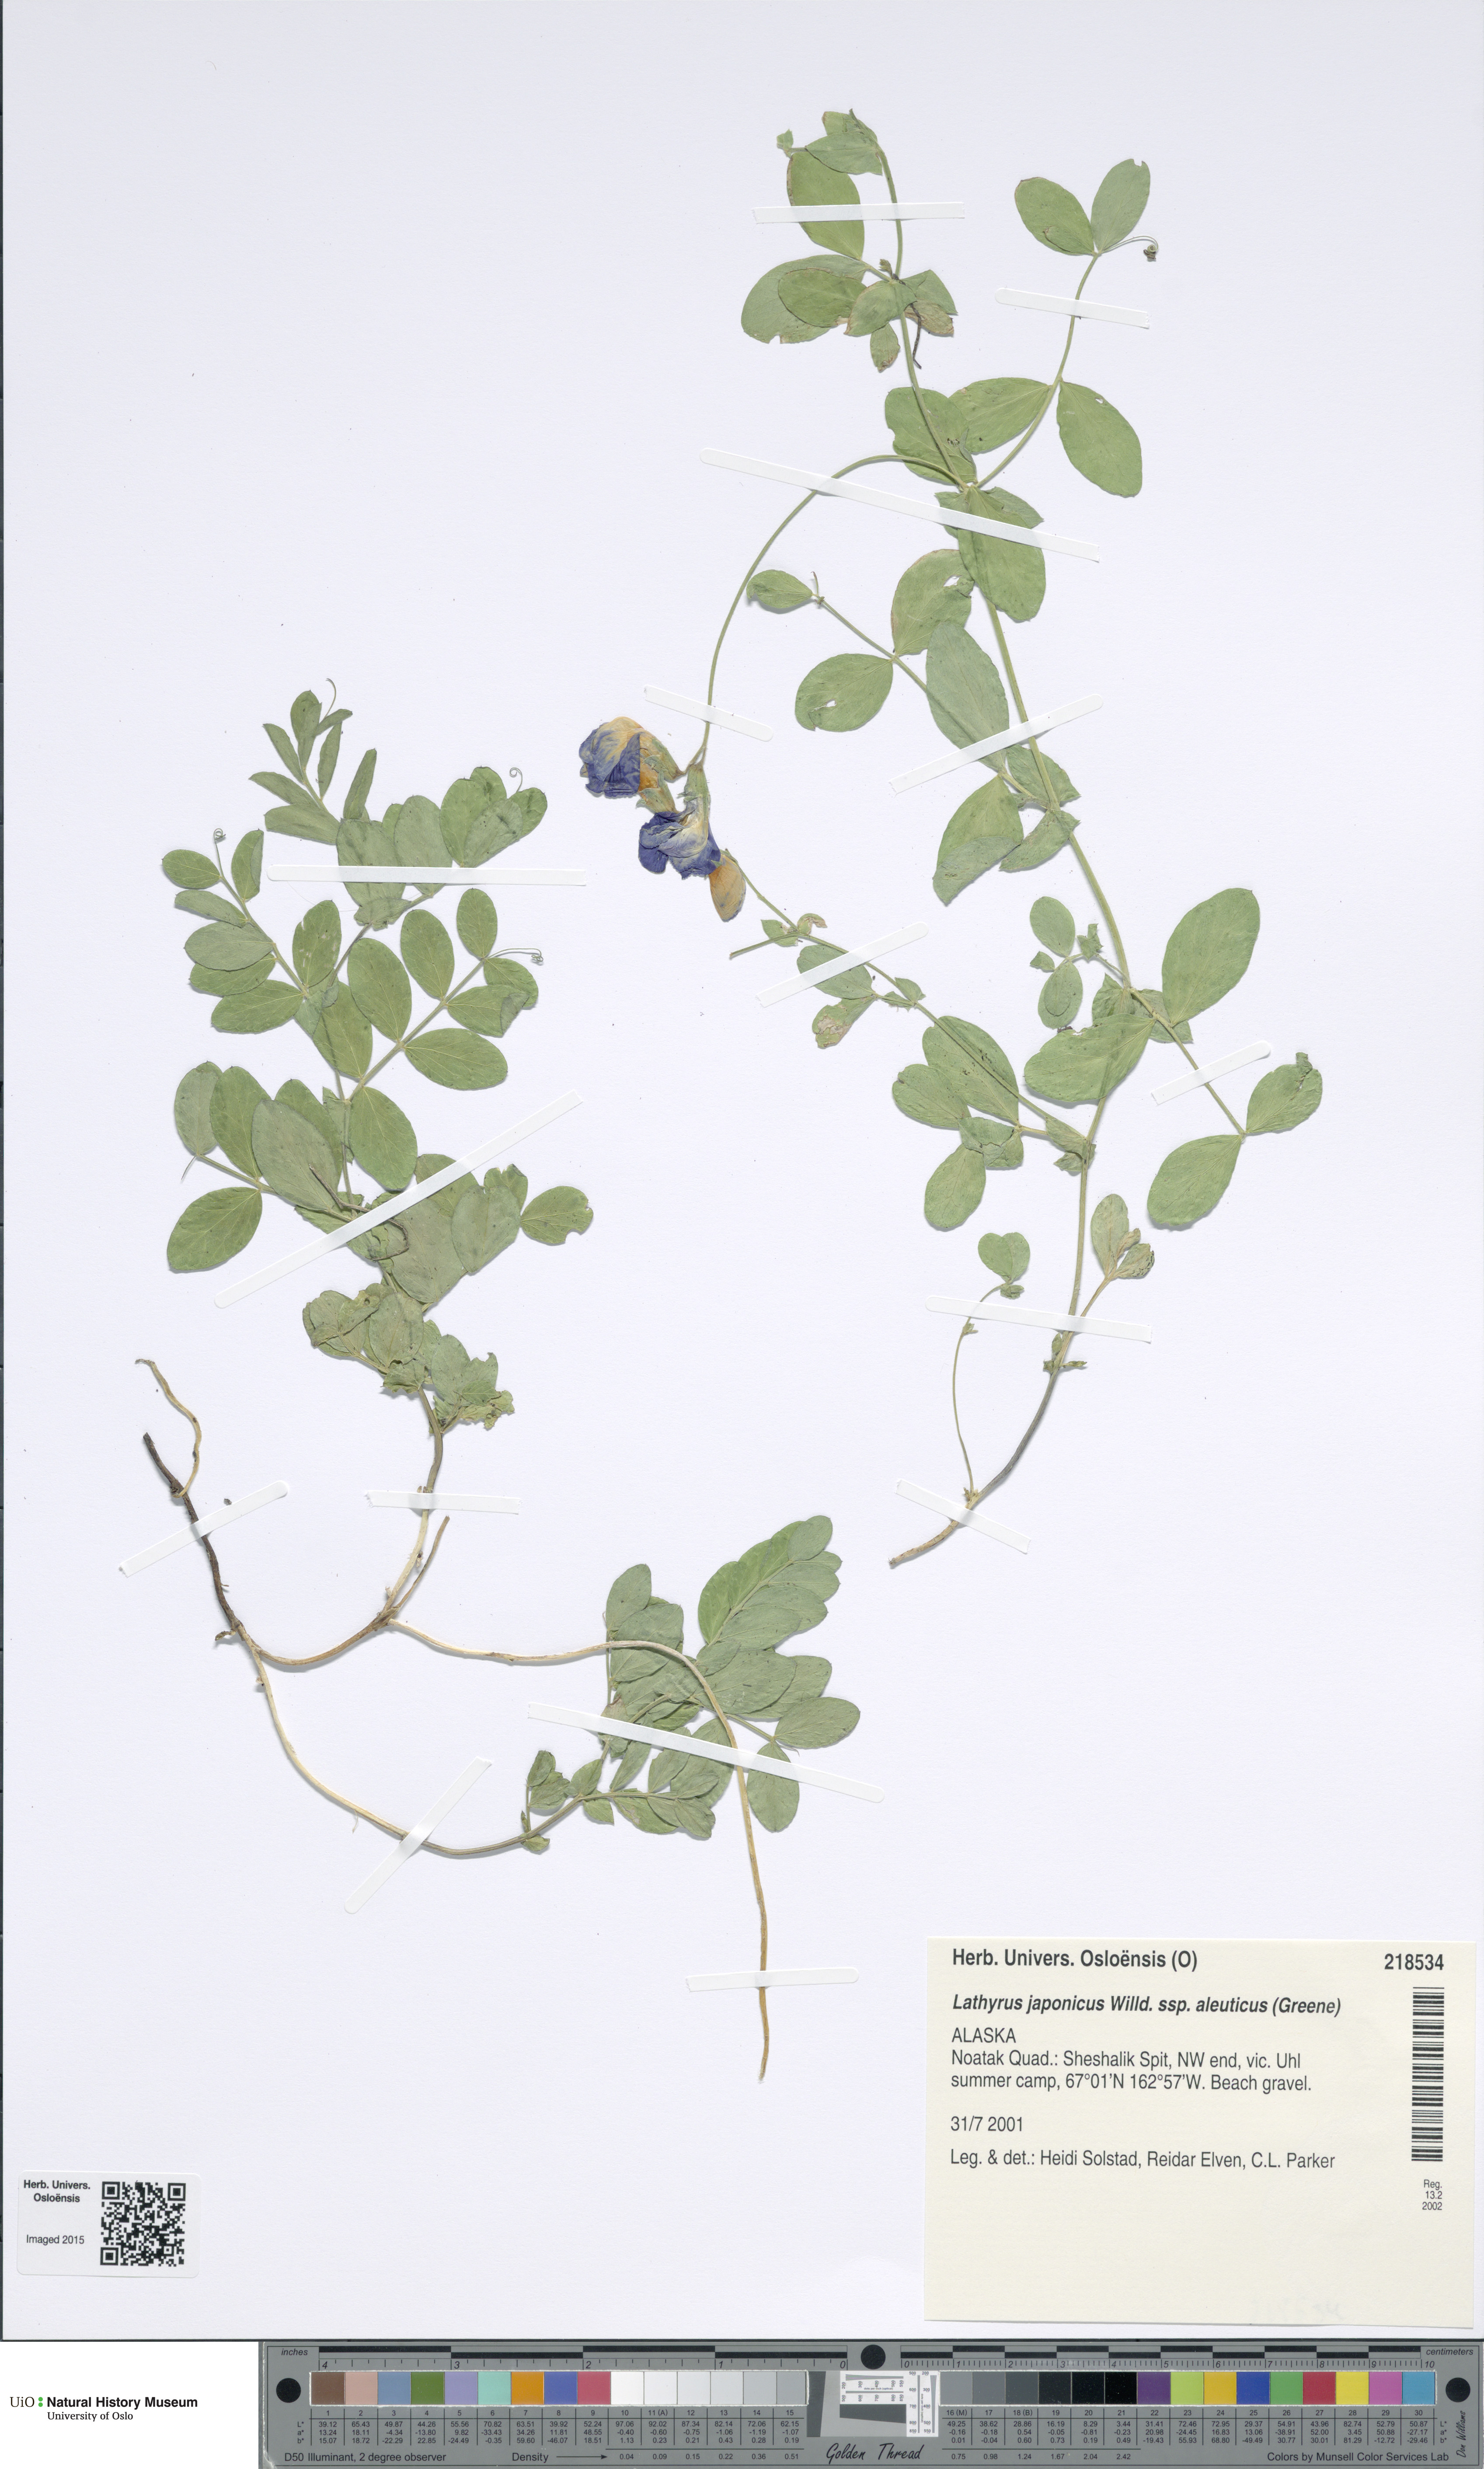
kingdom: Plantae
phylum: Tracheophyta
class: Magnoliopsida
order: Fabales
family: Fabaceae
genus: Lathyrus
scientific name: Lathyrus japonicus
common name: Sea pea
